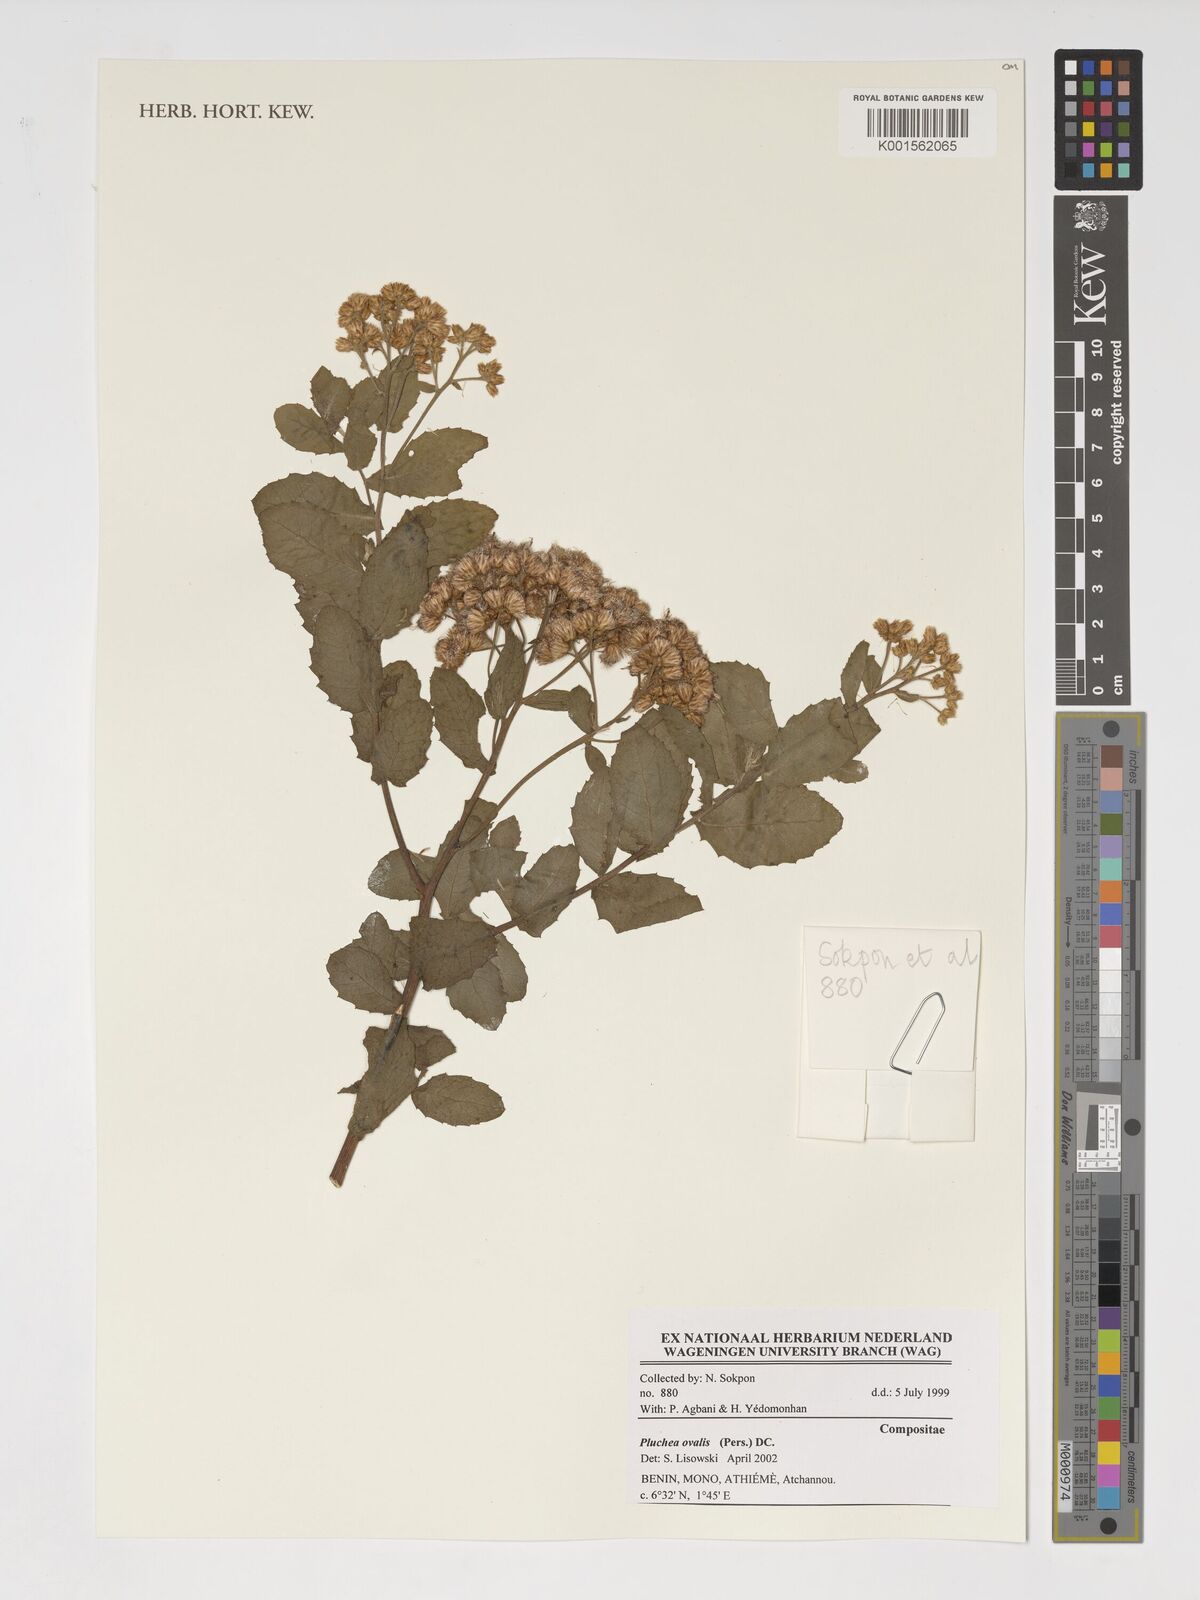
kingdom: Plantae
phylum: Tracheophyta
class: Magnoliopsida
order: Asterales
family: Asteraceae
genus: Pluchea
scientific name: Pluchea ovalis
